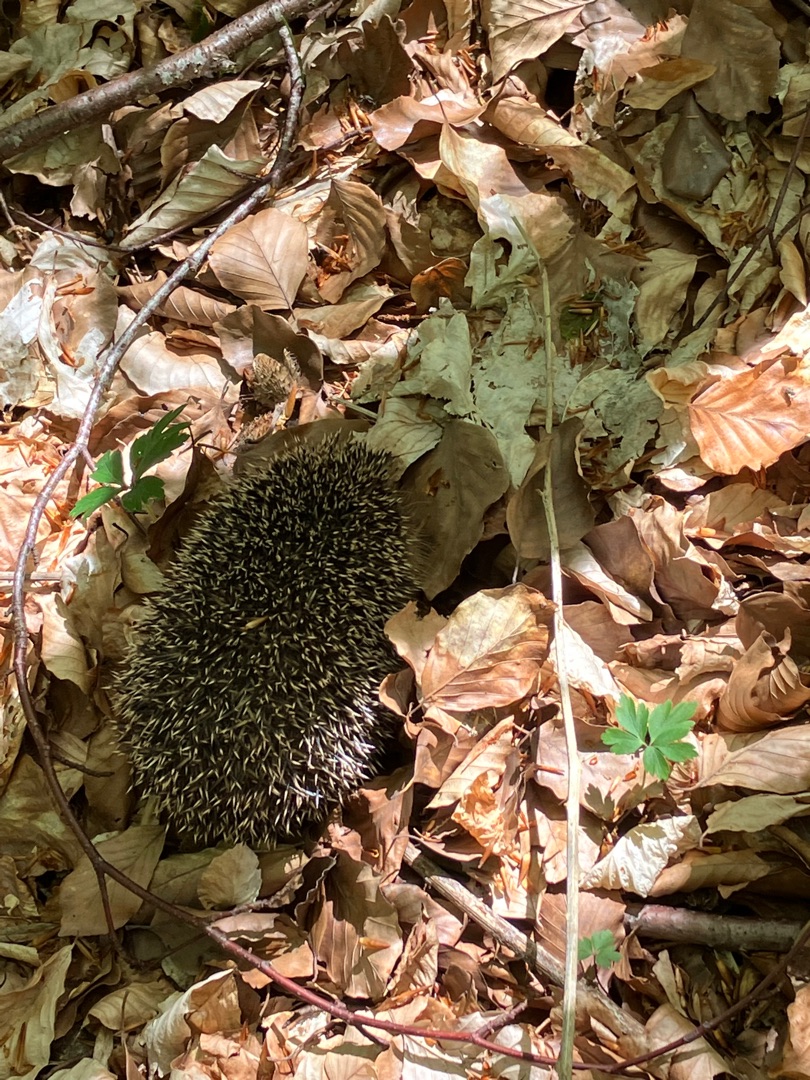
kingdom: Animalia
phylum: Chordata
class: Mammalia
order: Erinaceomorpha
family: Erinaceidae
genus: Erinaceus
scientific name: Erinaceus europaeus
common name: Pindsvin
